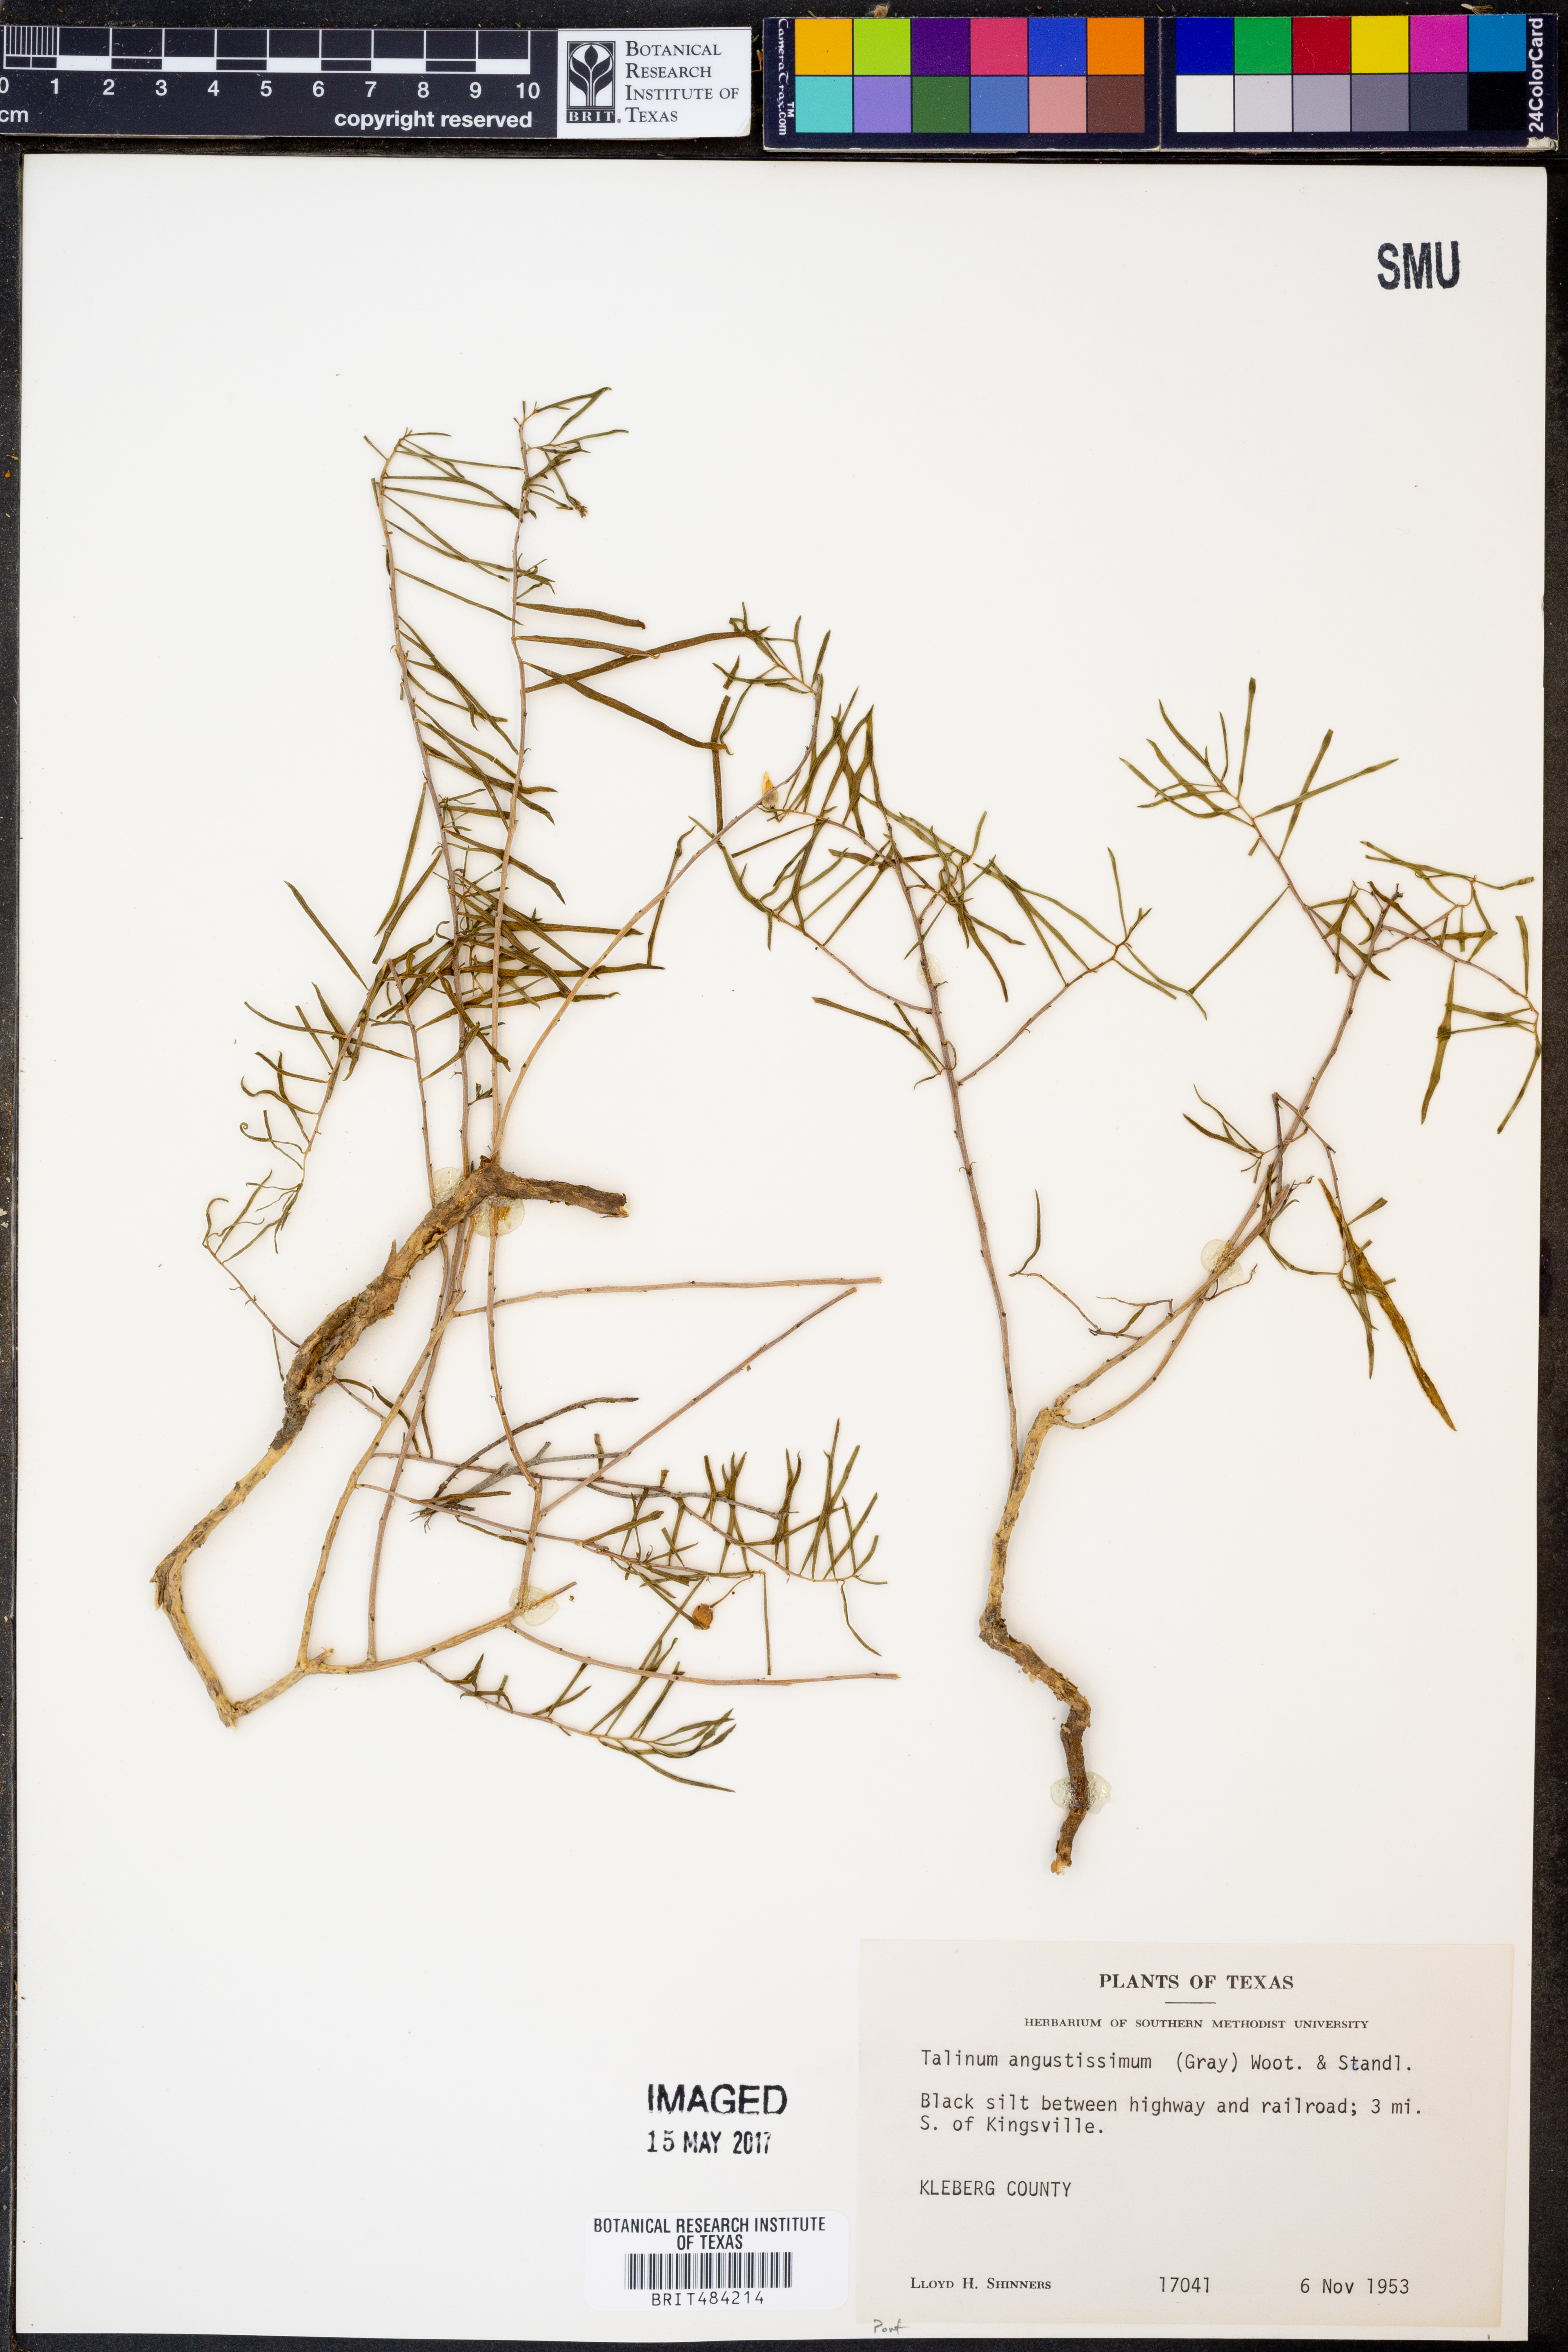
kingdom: Plantae
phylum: Tracheophyta
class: Magnoliopsida
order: Caryophyllales
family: Montiaceae
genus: Phemeranthus
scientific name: Phemeranthus aurantiacus
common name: Orange fameflower
